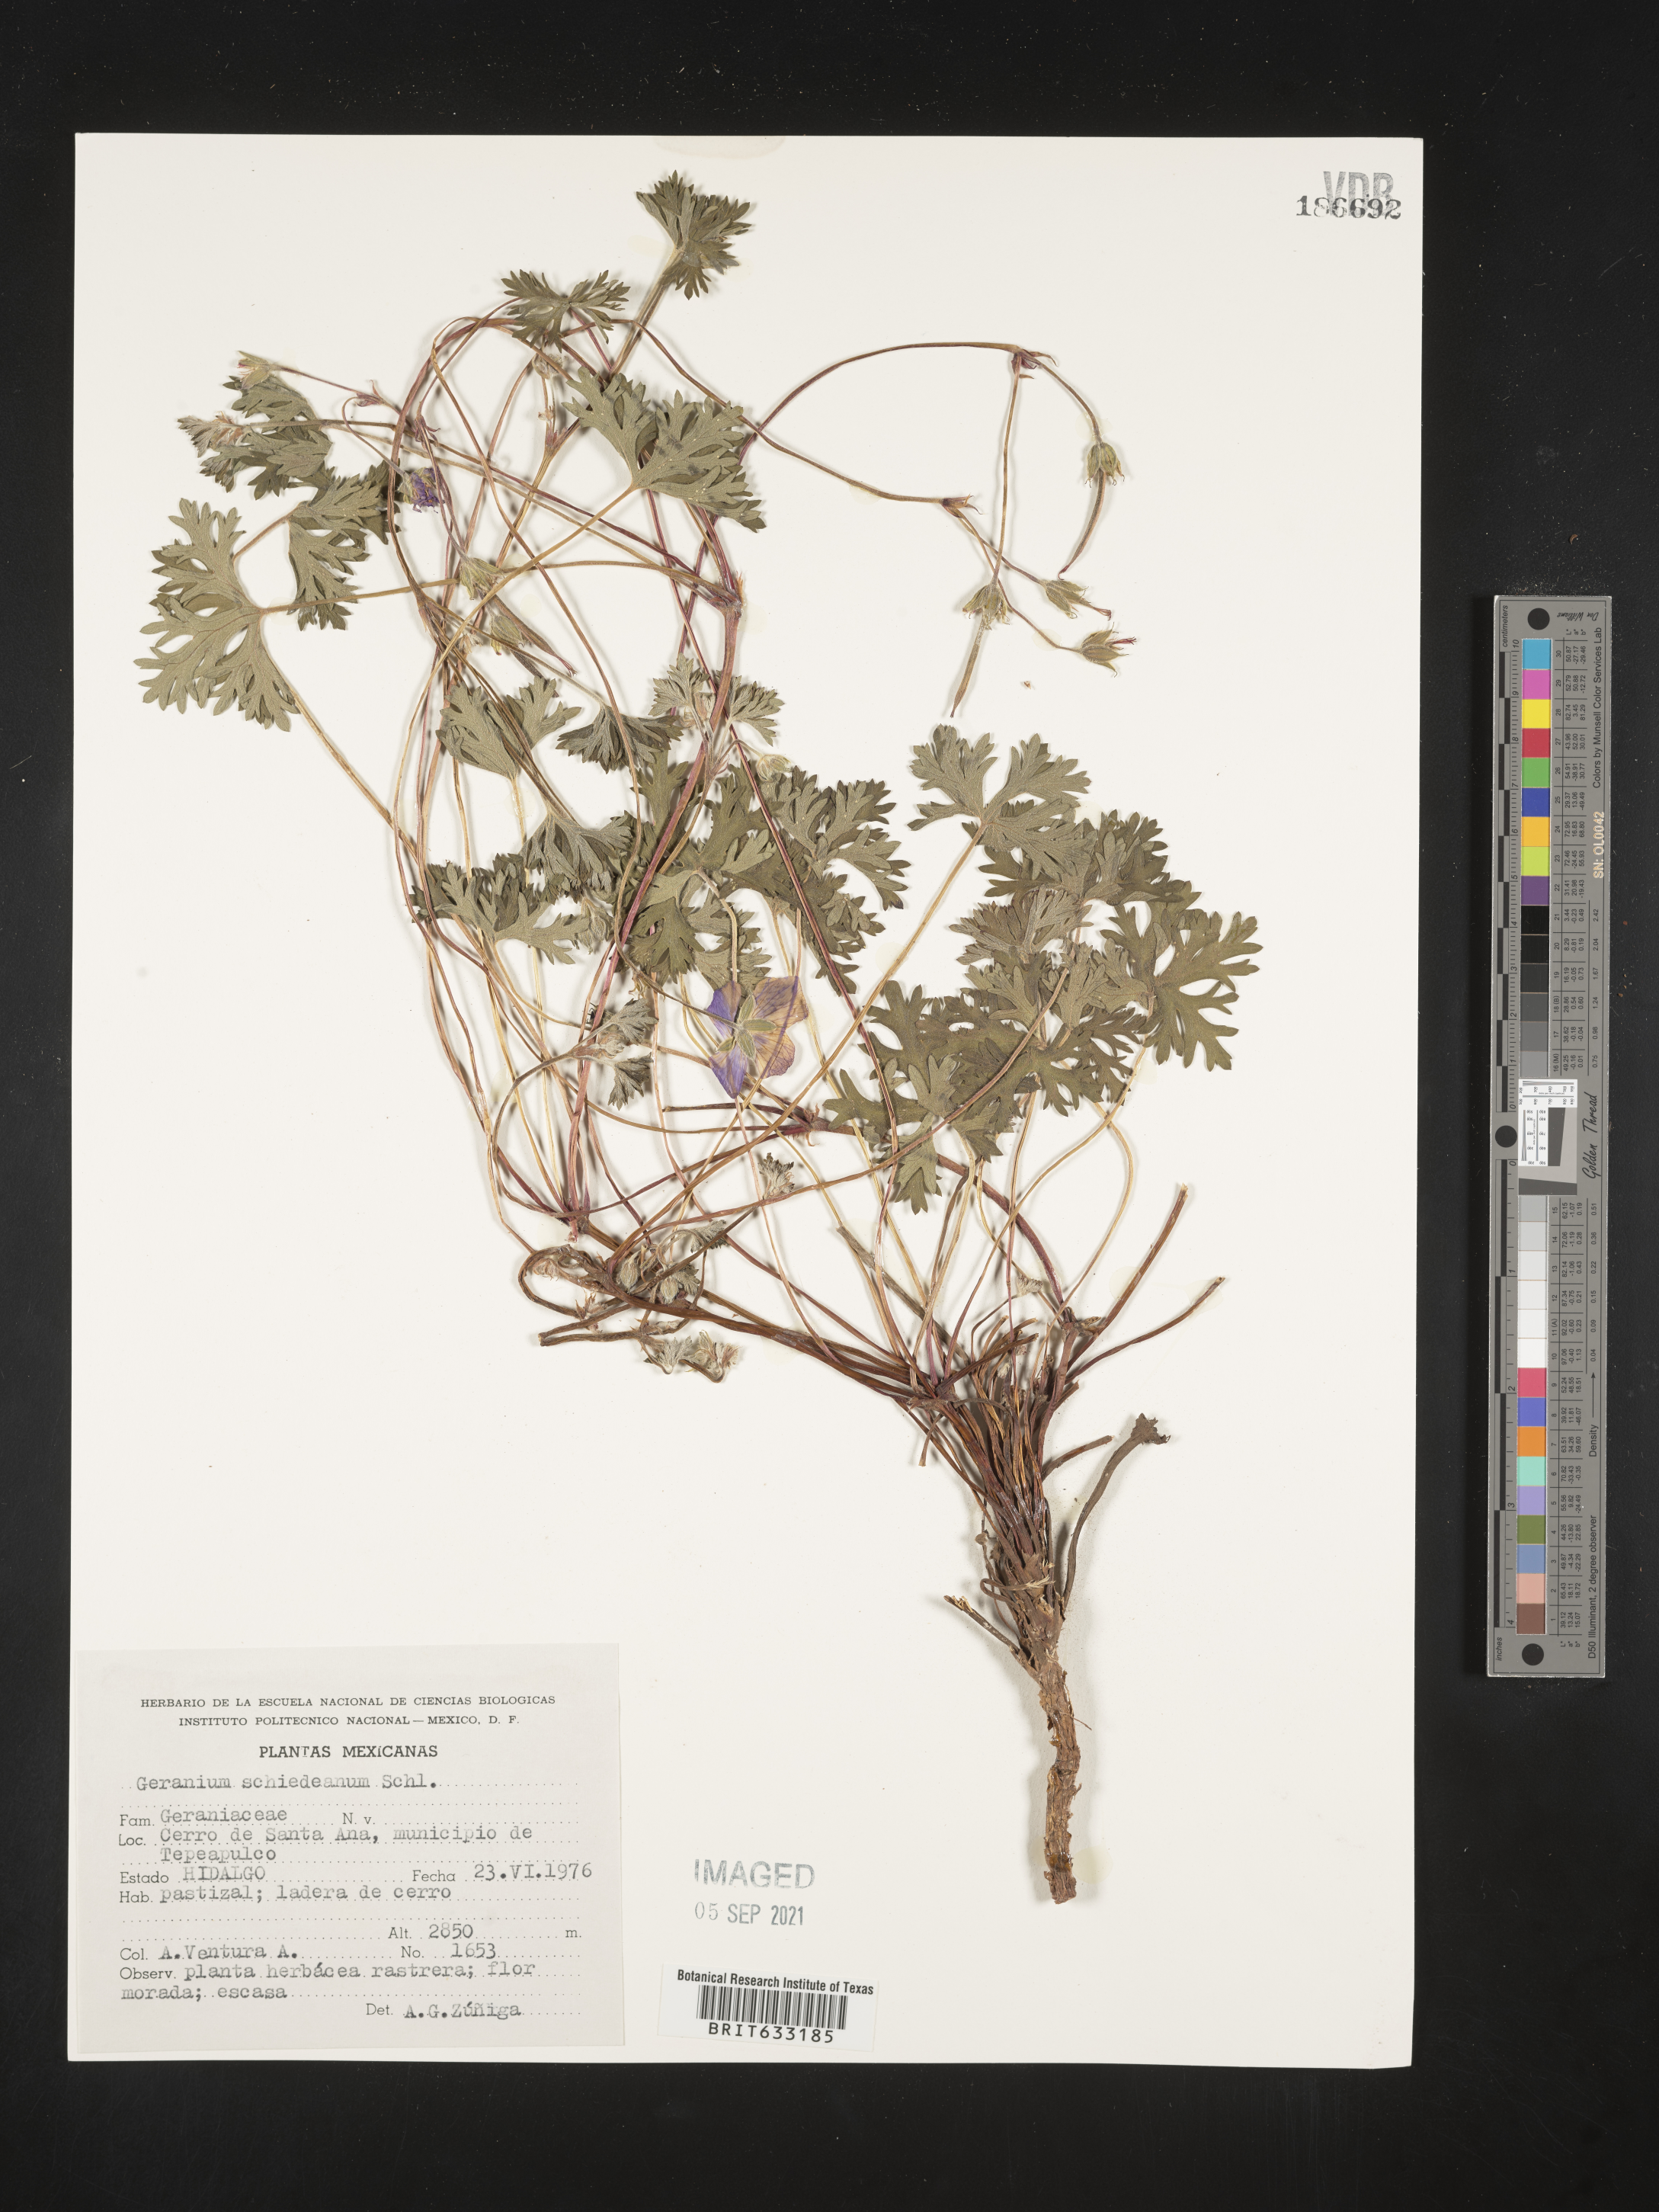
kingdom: Plantae
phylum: Tracheophyta
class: Magnoliopsida
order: Geraniales
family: Geraniaceae
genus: Geranium
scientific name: Geranium
